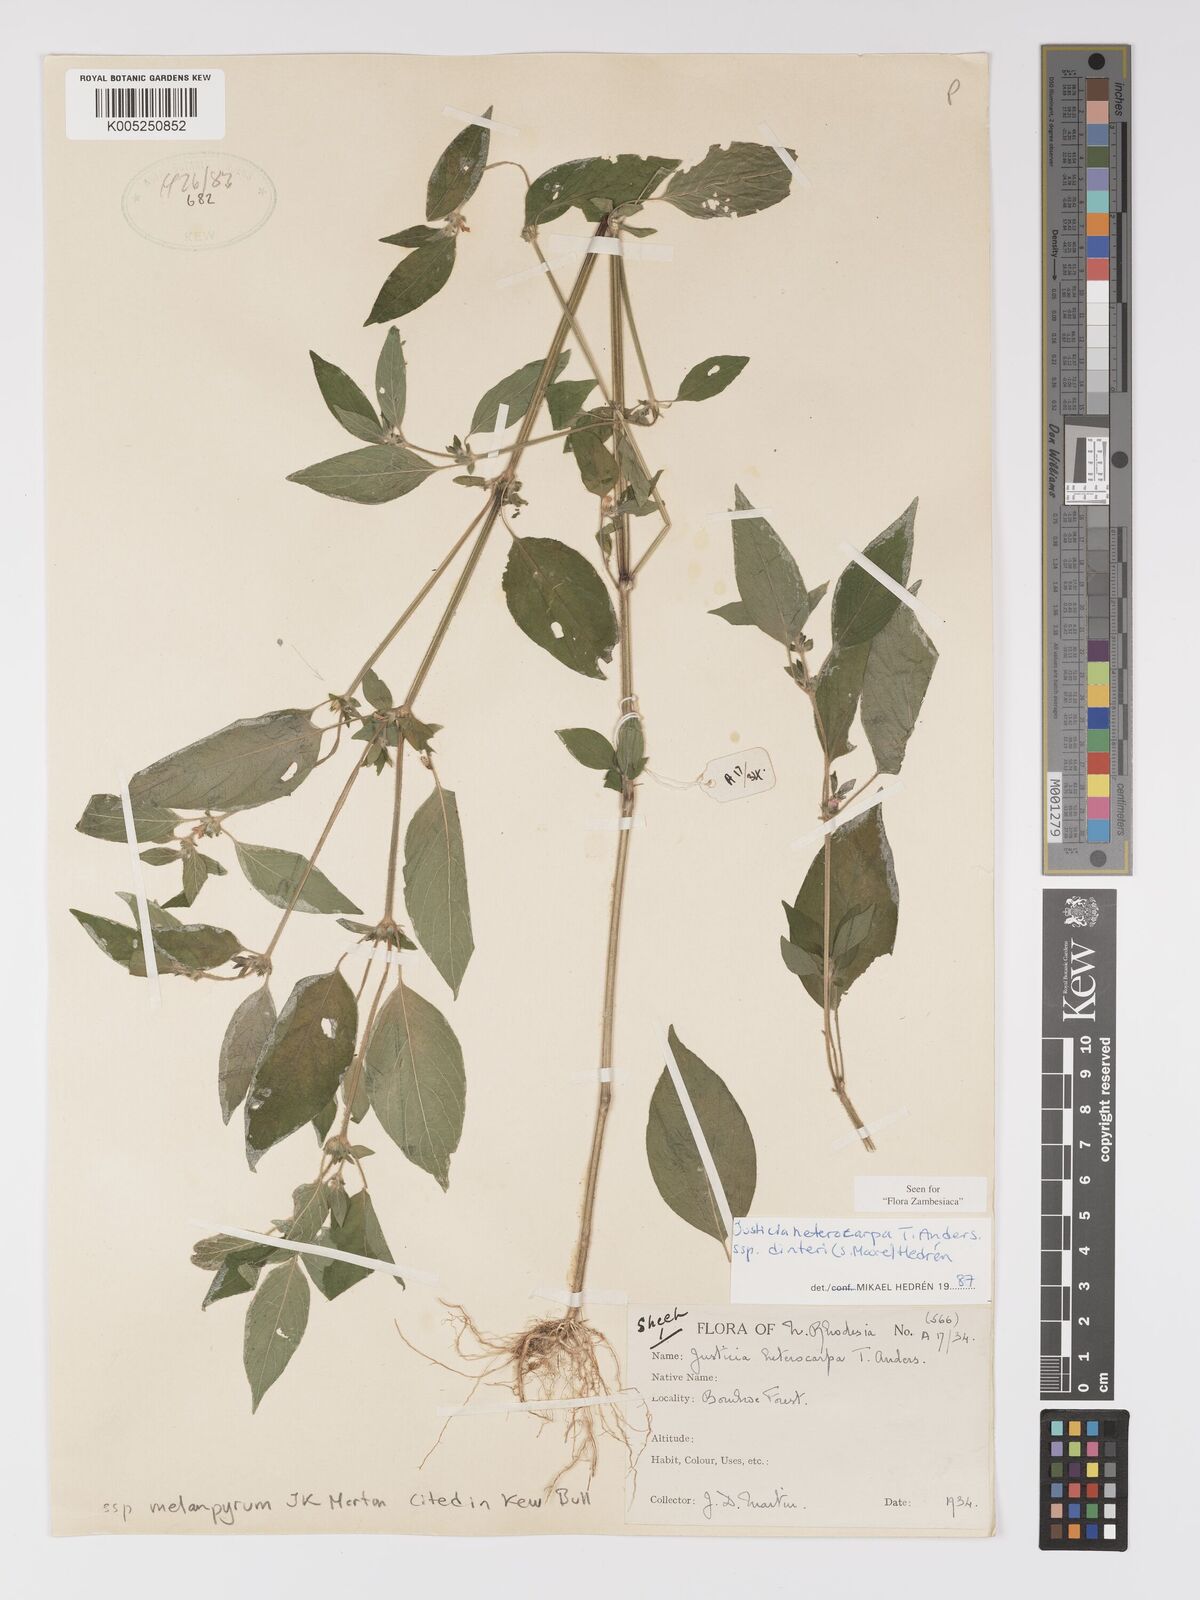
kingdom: Plantae
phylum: Tracheophyta
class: Magnoliopsida
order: Lamiales
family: Acanthaceae
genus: Justicia
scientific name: Justicia heterocarpa
